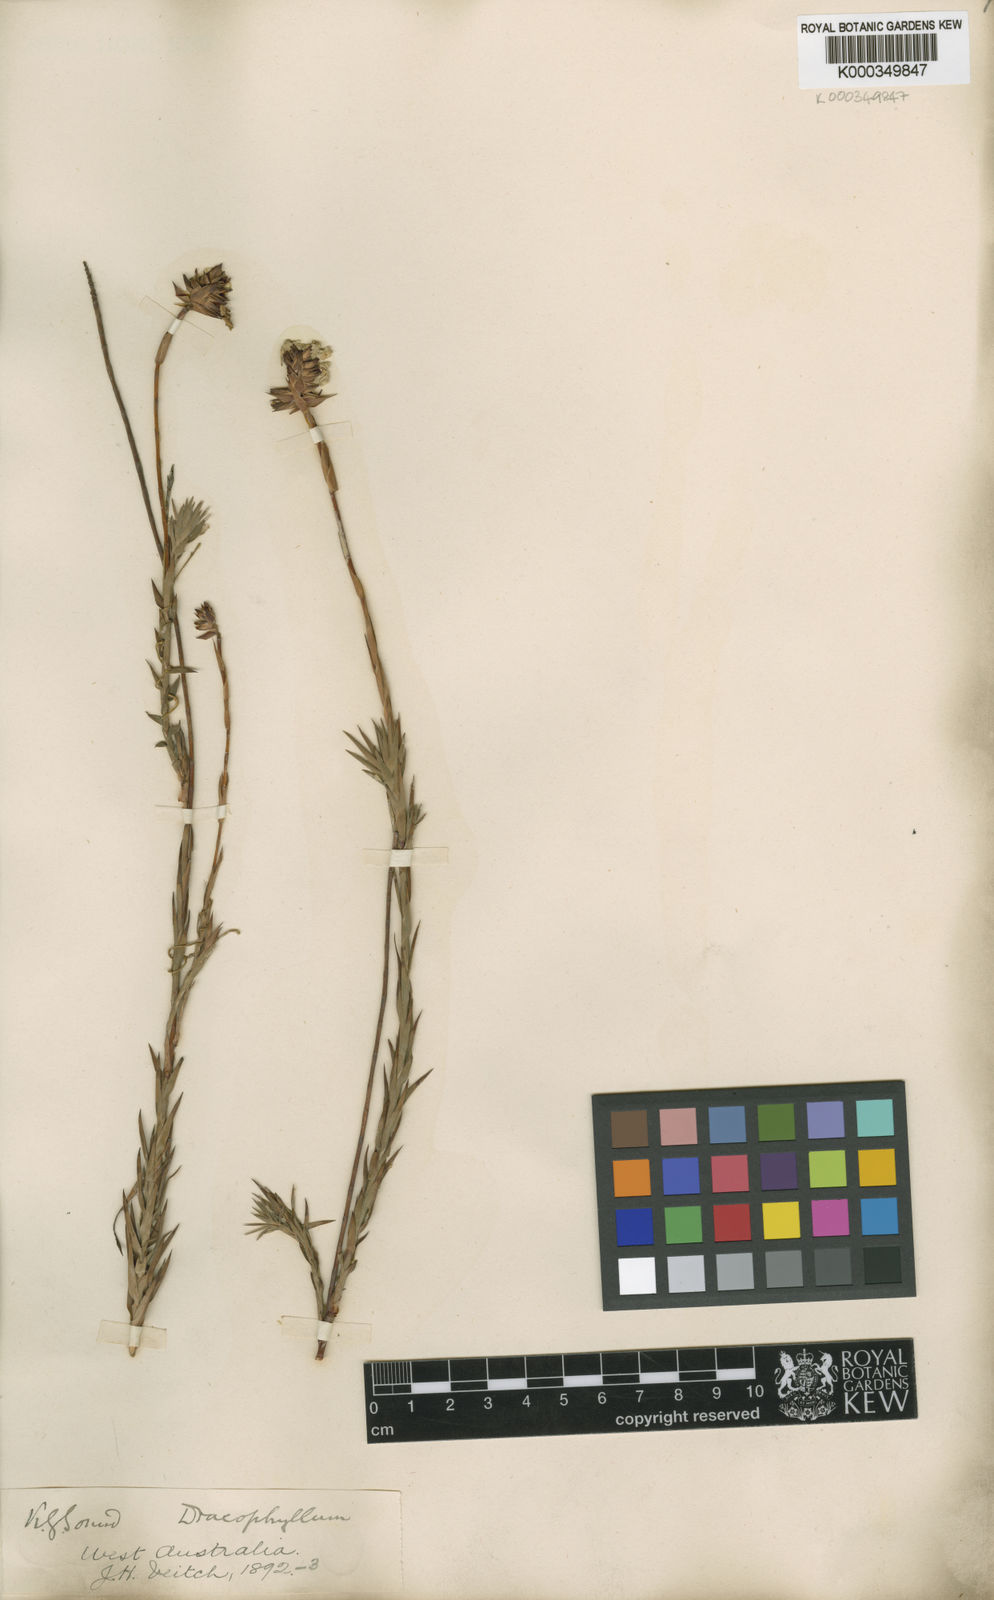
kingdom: Plantae
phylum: Tracheophyta
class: Magnoliopsida
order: Ericales
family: Ericaceae
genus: Dracophyllum
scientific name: Dracophyllum
